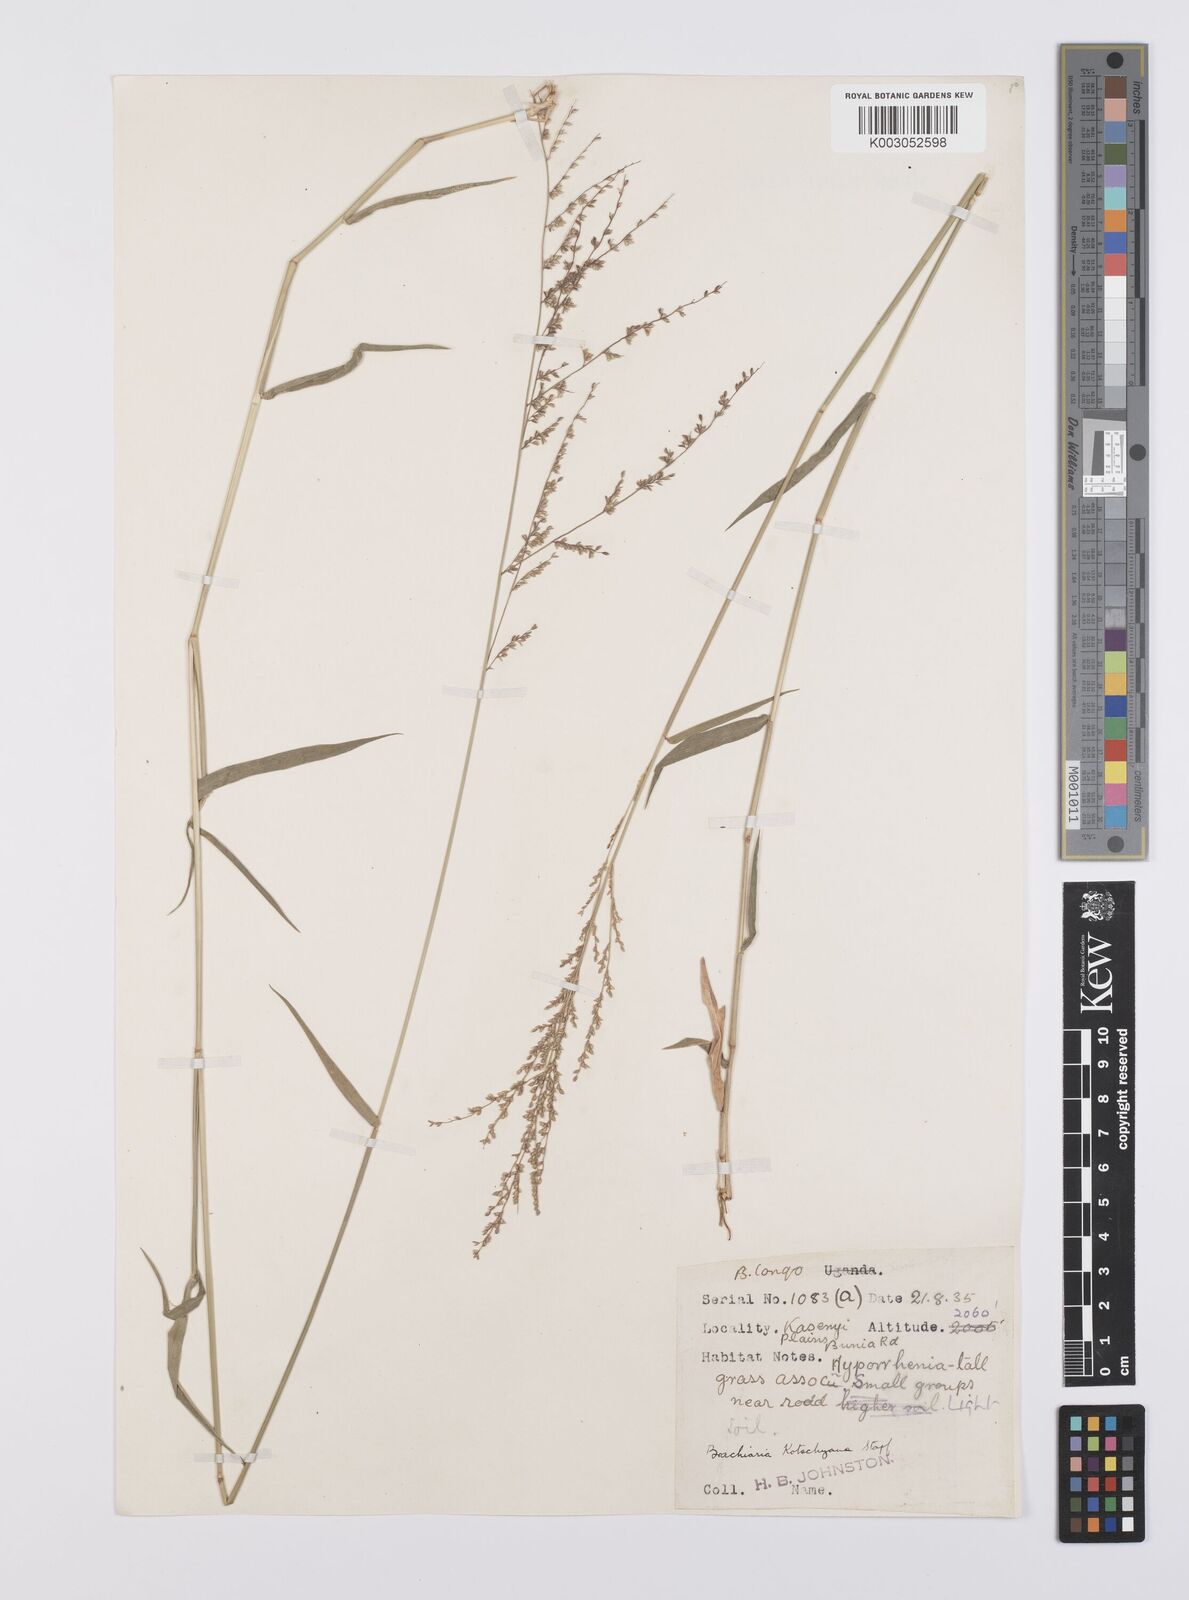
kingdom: Plantae
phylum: Tracheophyta
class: Liliopsida
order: Poales
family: Poaceae
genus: Urochloa
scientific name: Urochloa comata
